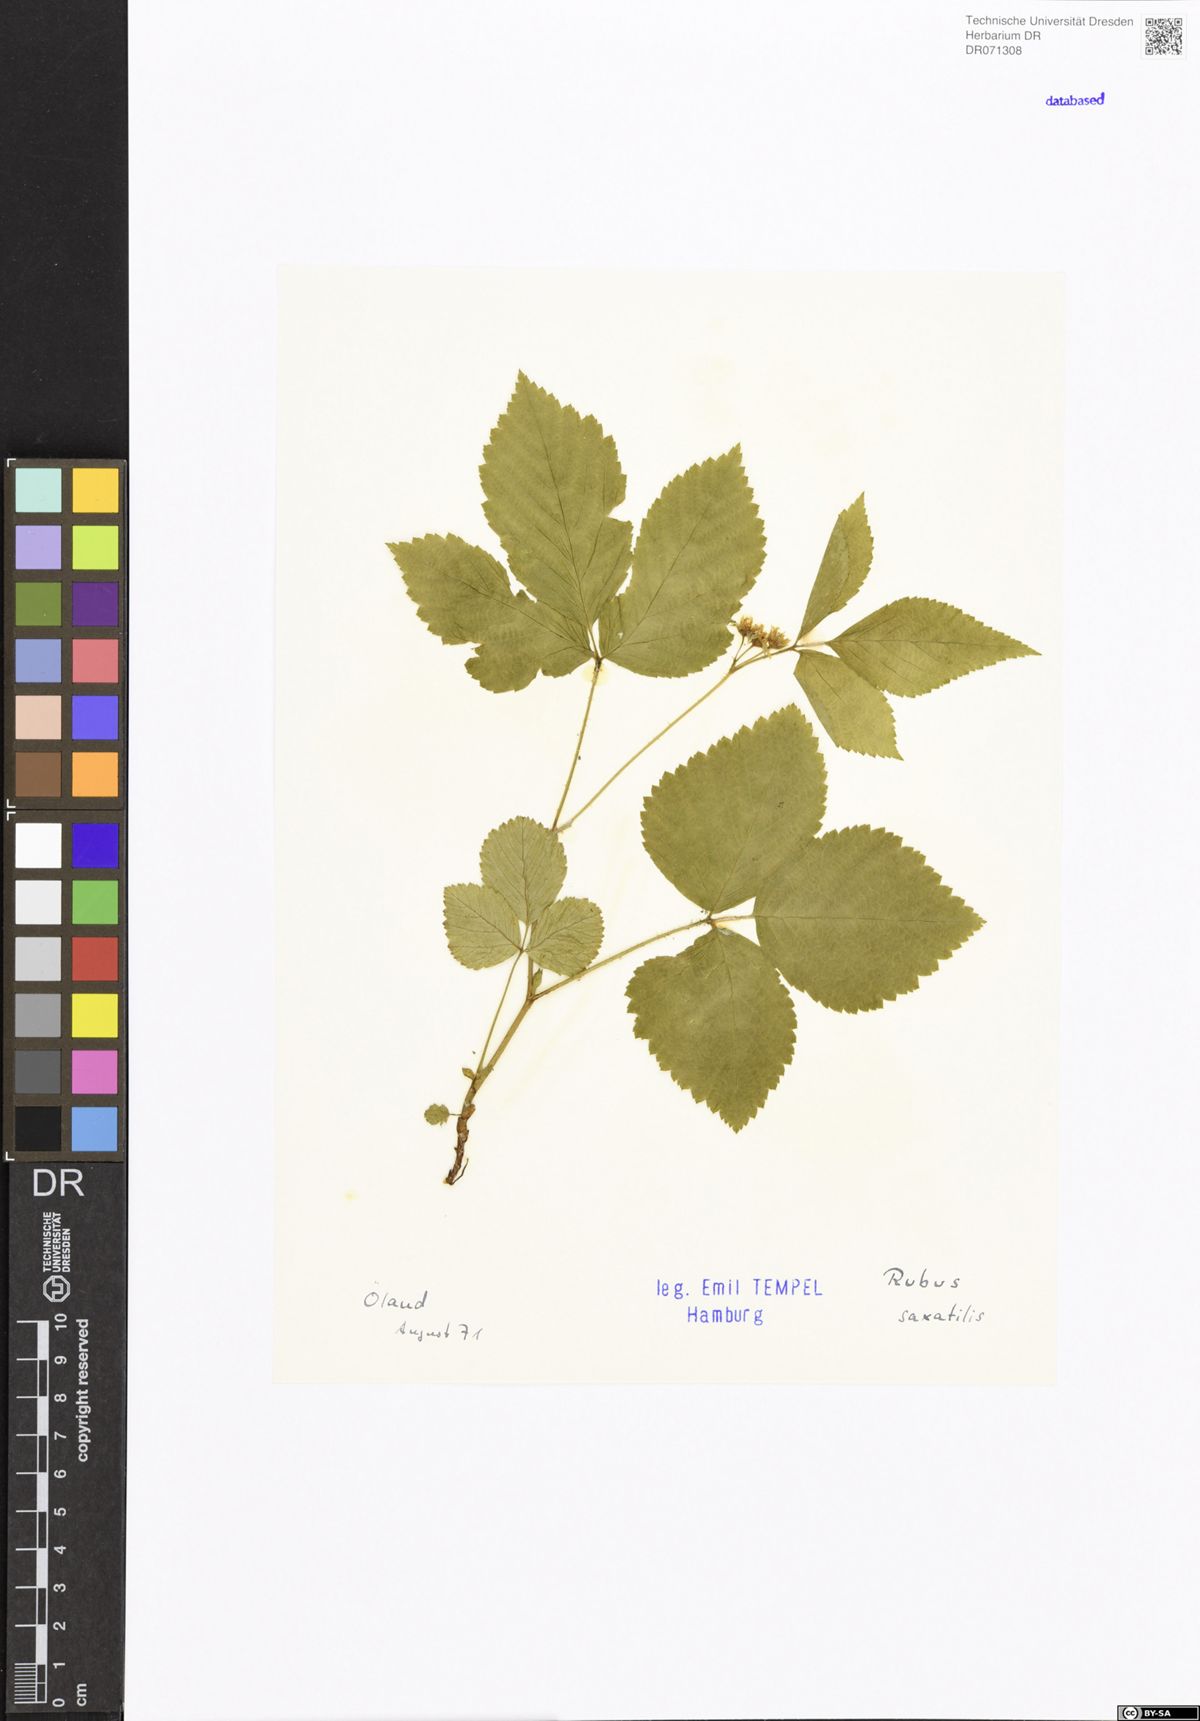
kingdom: Plantae
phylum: Tracheophyta
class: Magnoliopsida
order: Rosales
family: Rosaceae
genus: Rubus
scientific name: Rubus saxatilis
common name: Stone bramble
